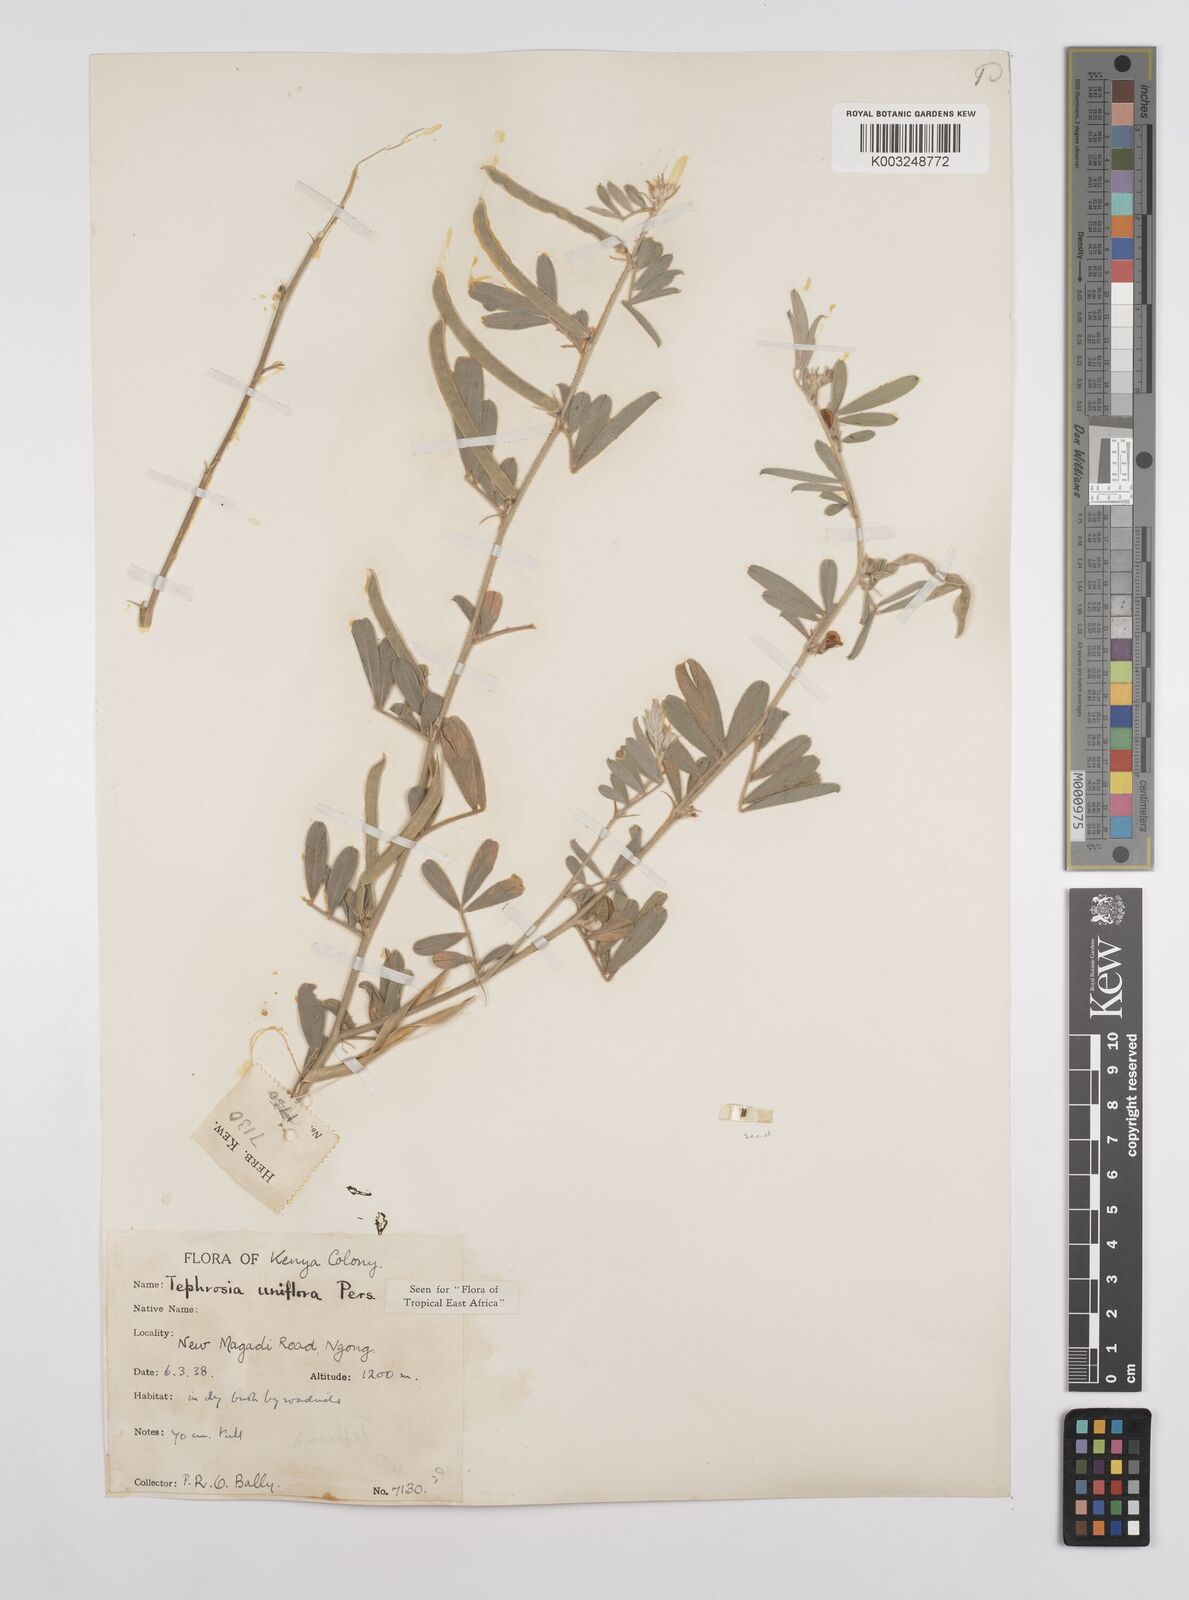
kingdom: Plantae
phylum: Tracheophyta
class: Magnoliopsida
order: Fabales
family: Fabaceae
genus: Tephrosia
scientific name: Tephrosia uniflora
